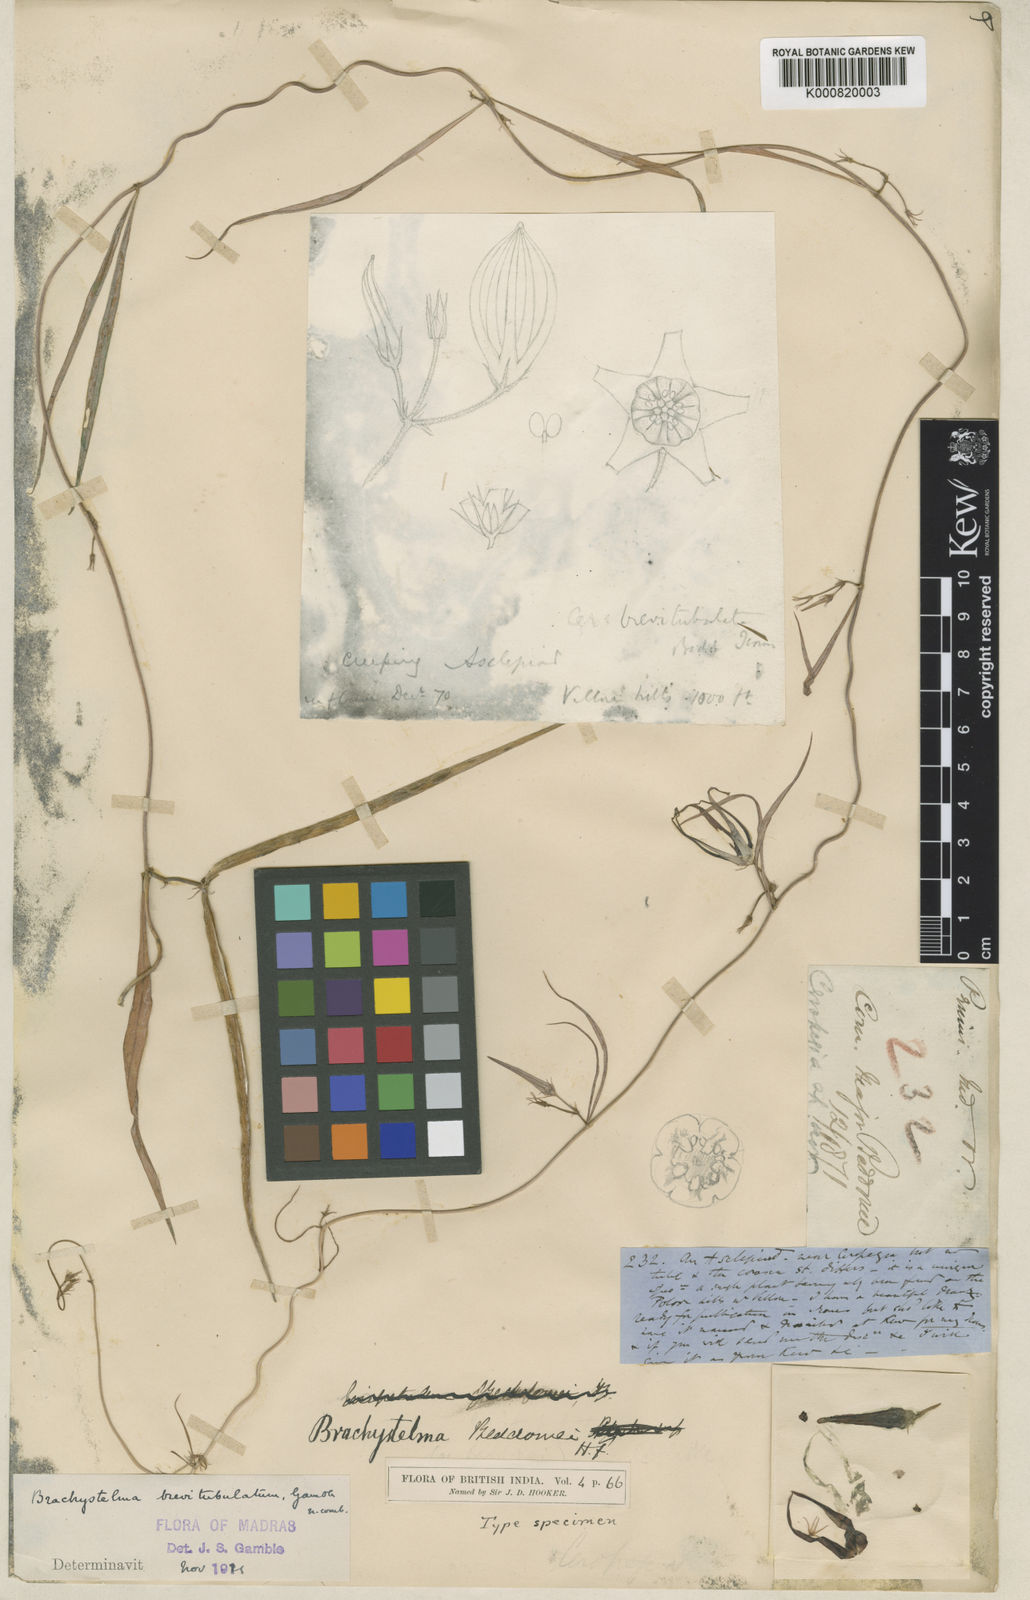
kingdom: Plantae
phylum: Tracheophyta
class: Magnoliopsida
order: Gentianales
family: Apocynaceae
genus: Ceropegia
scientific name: Ceropegia brevitubulata
